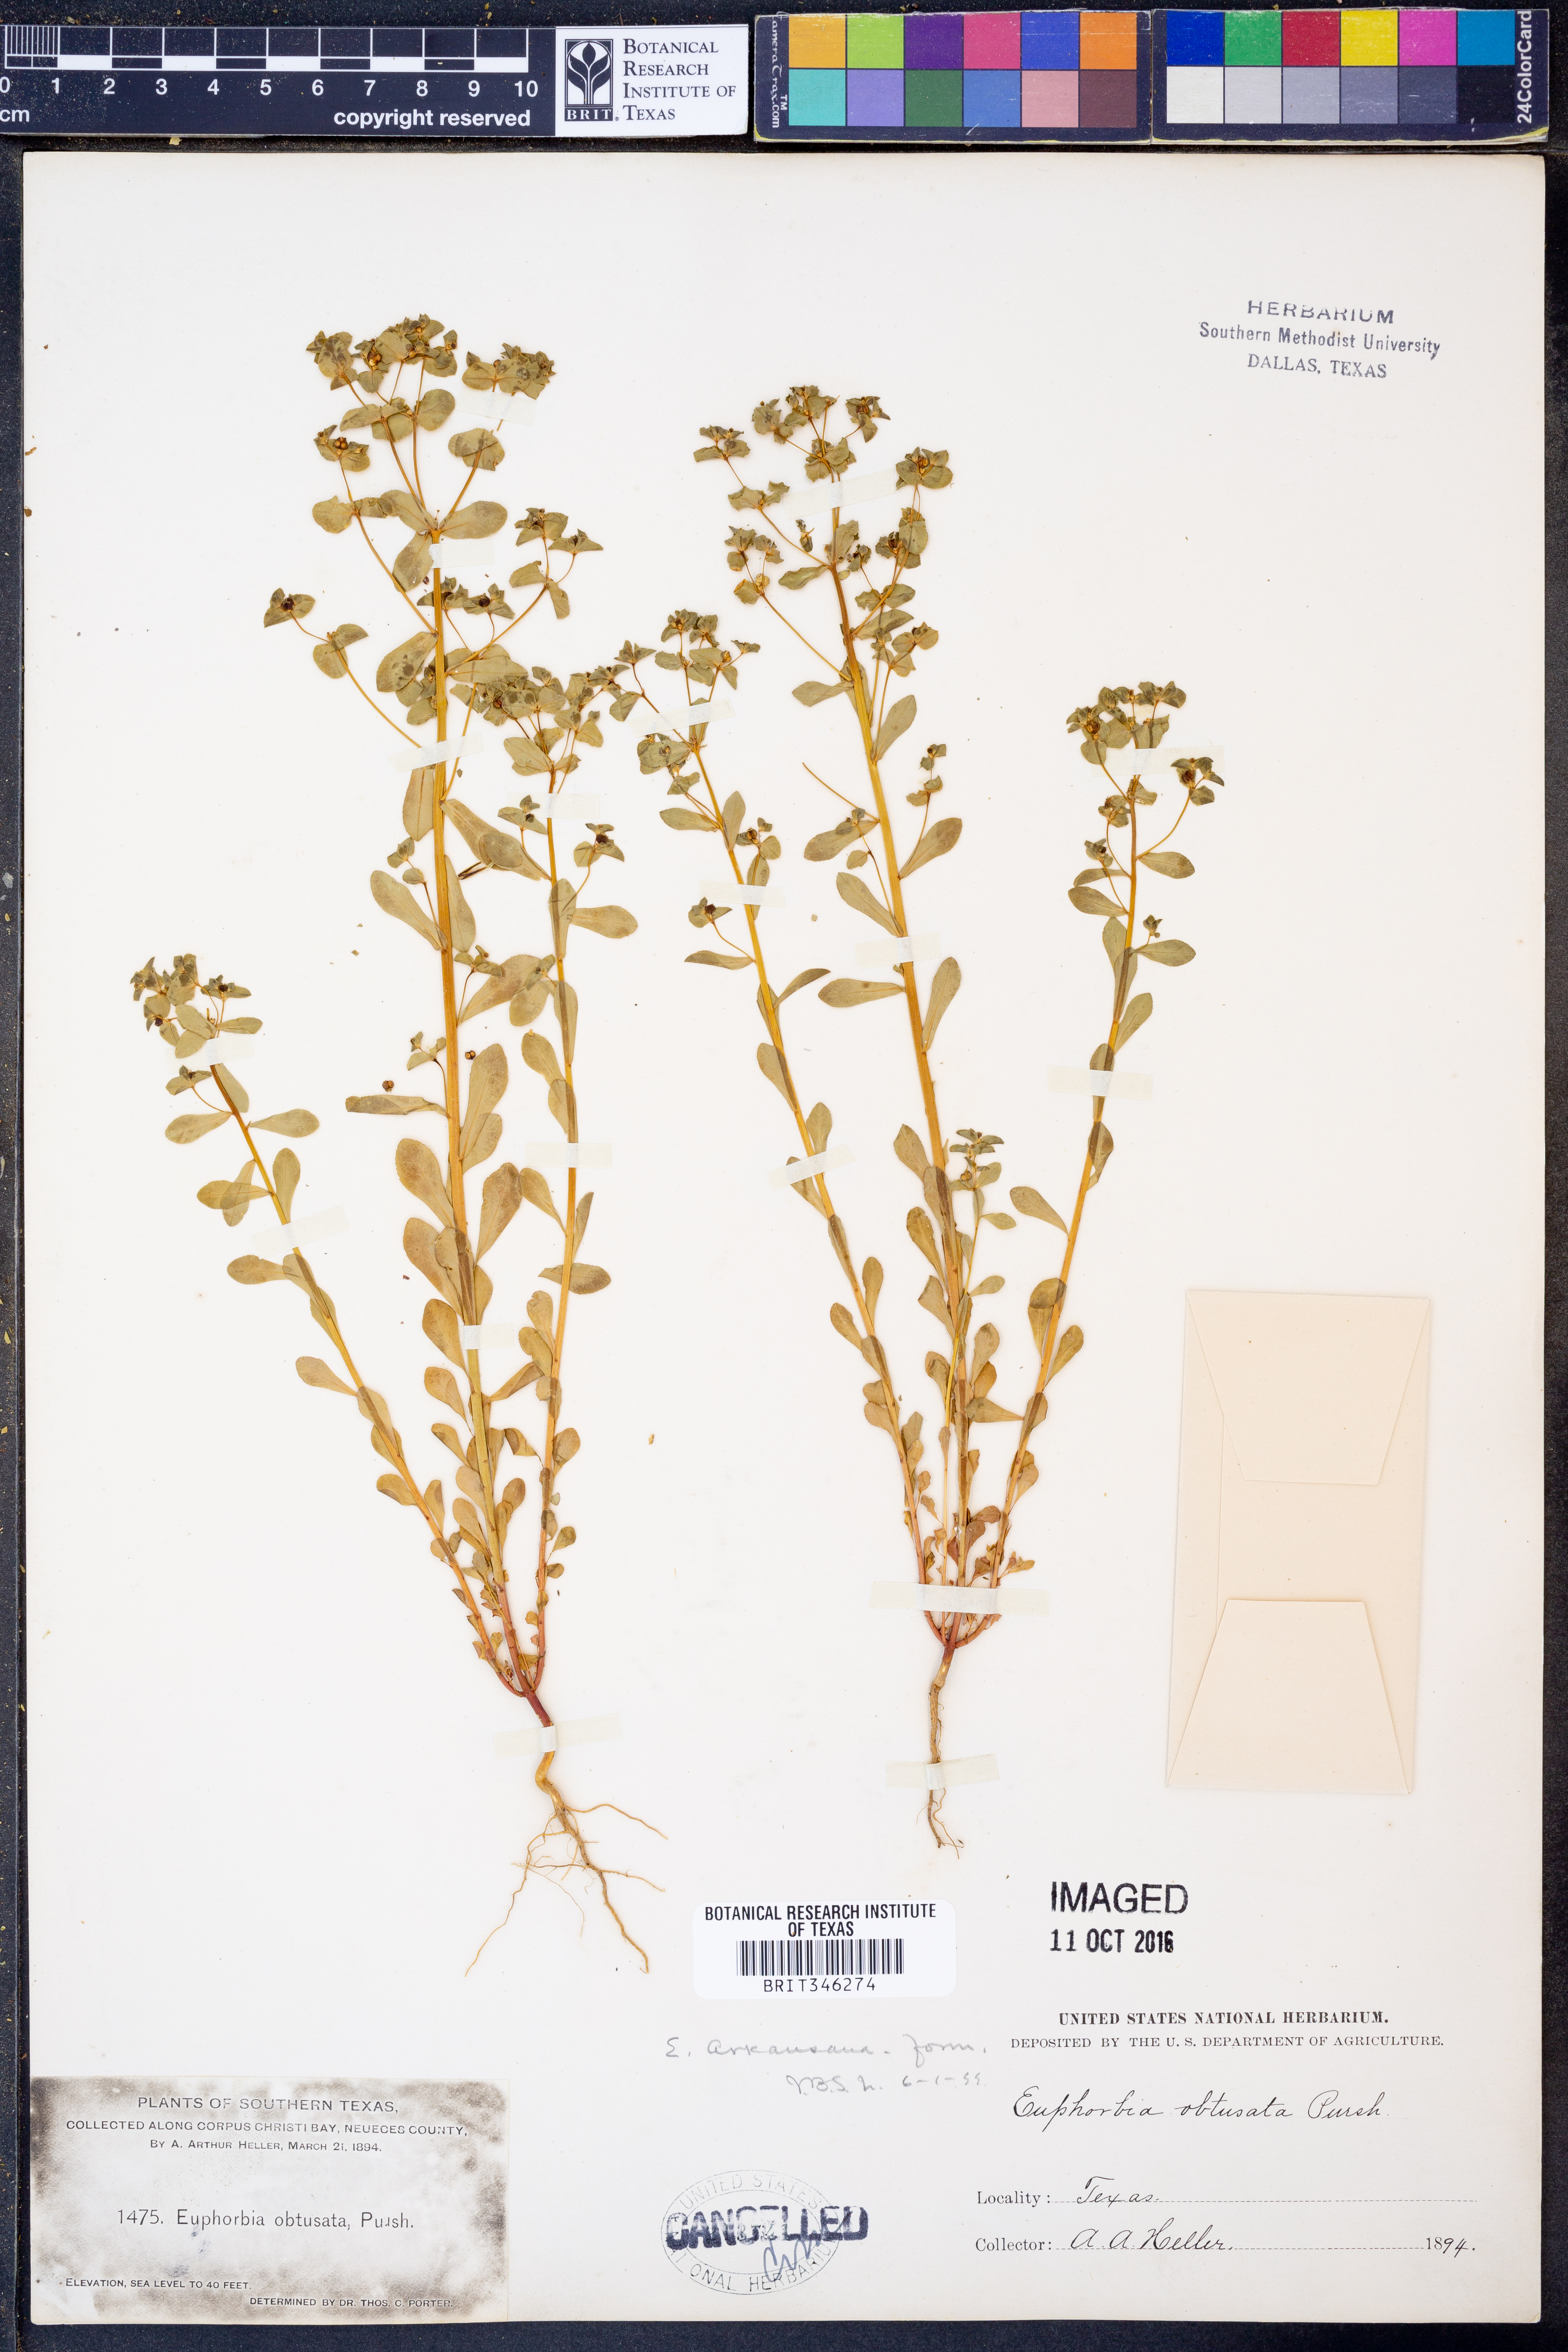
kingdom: Plantae
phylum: Tracheophyta
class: Magnoliopsida
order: Malpighiales
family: Euphorbiaceae
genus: Euphorbia
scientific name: Euphorbia spathulata
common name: Blunt spurge
